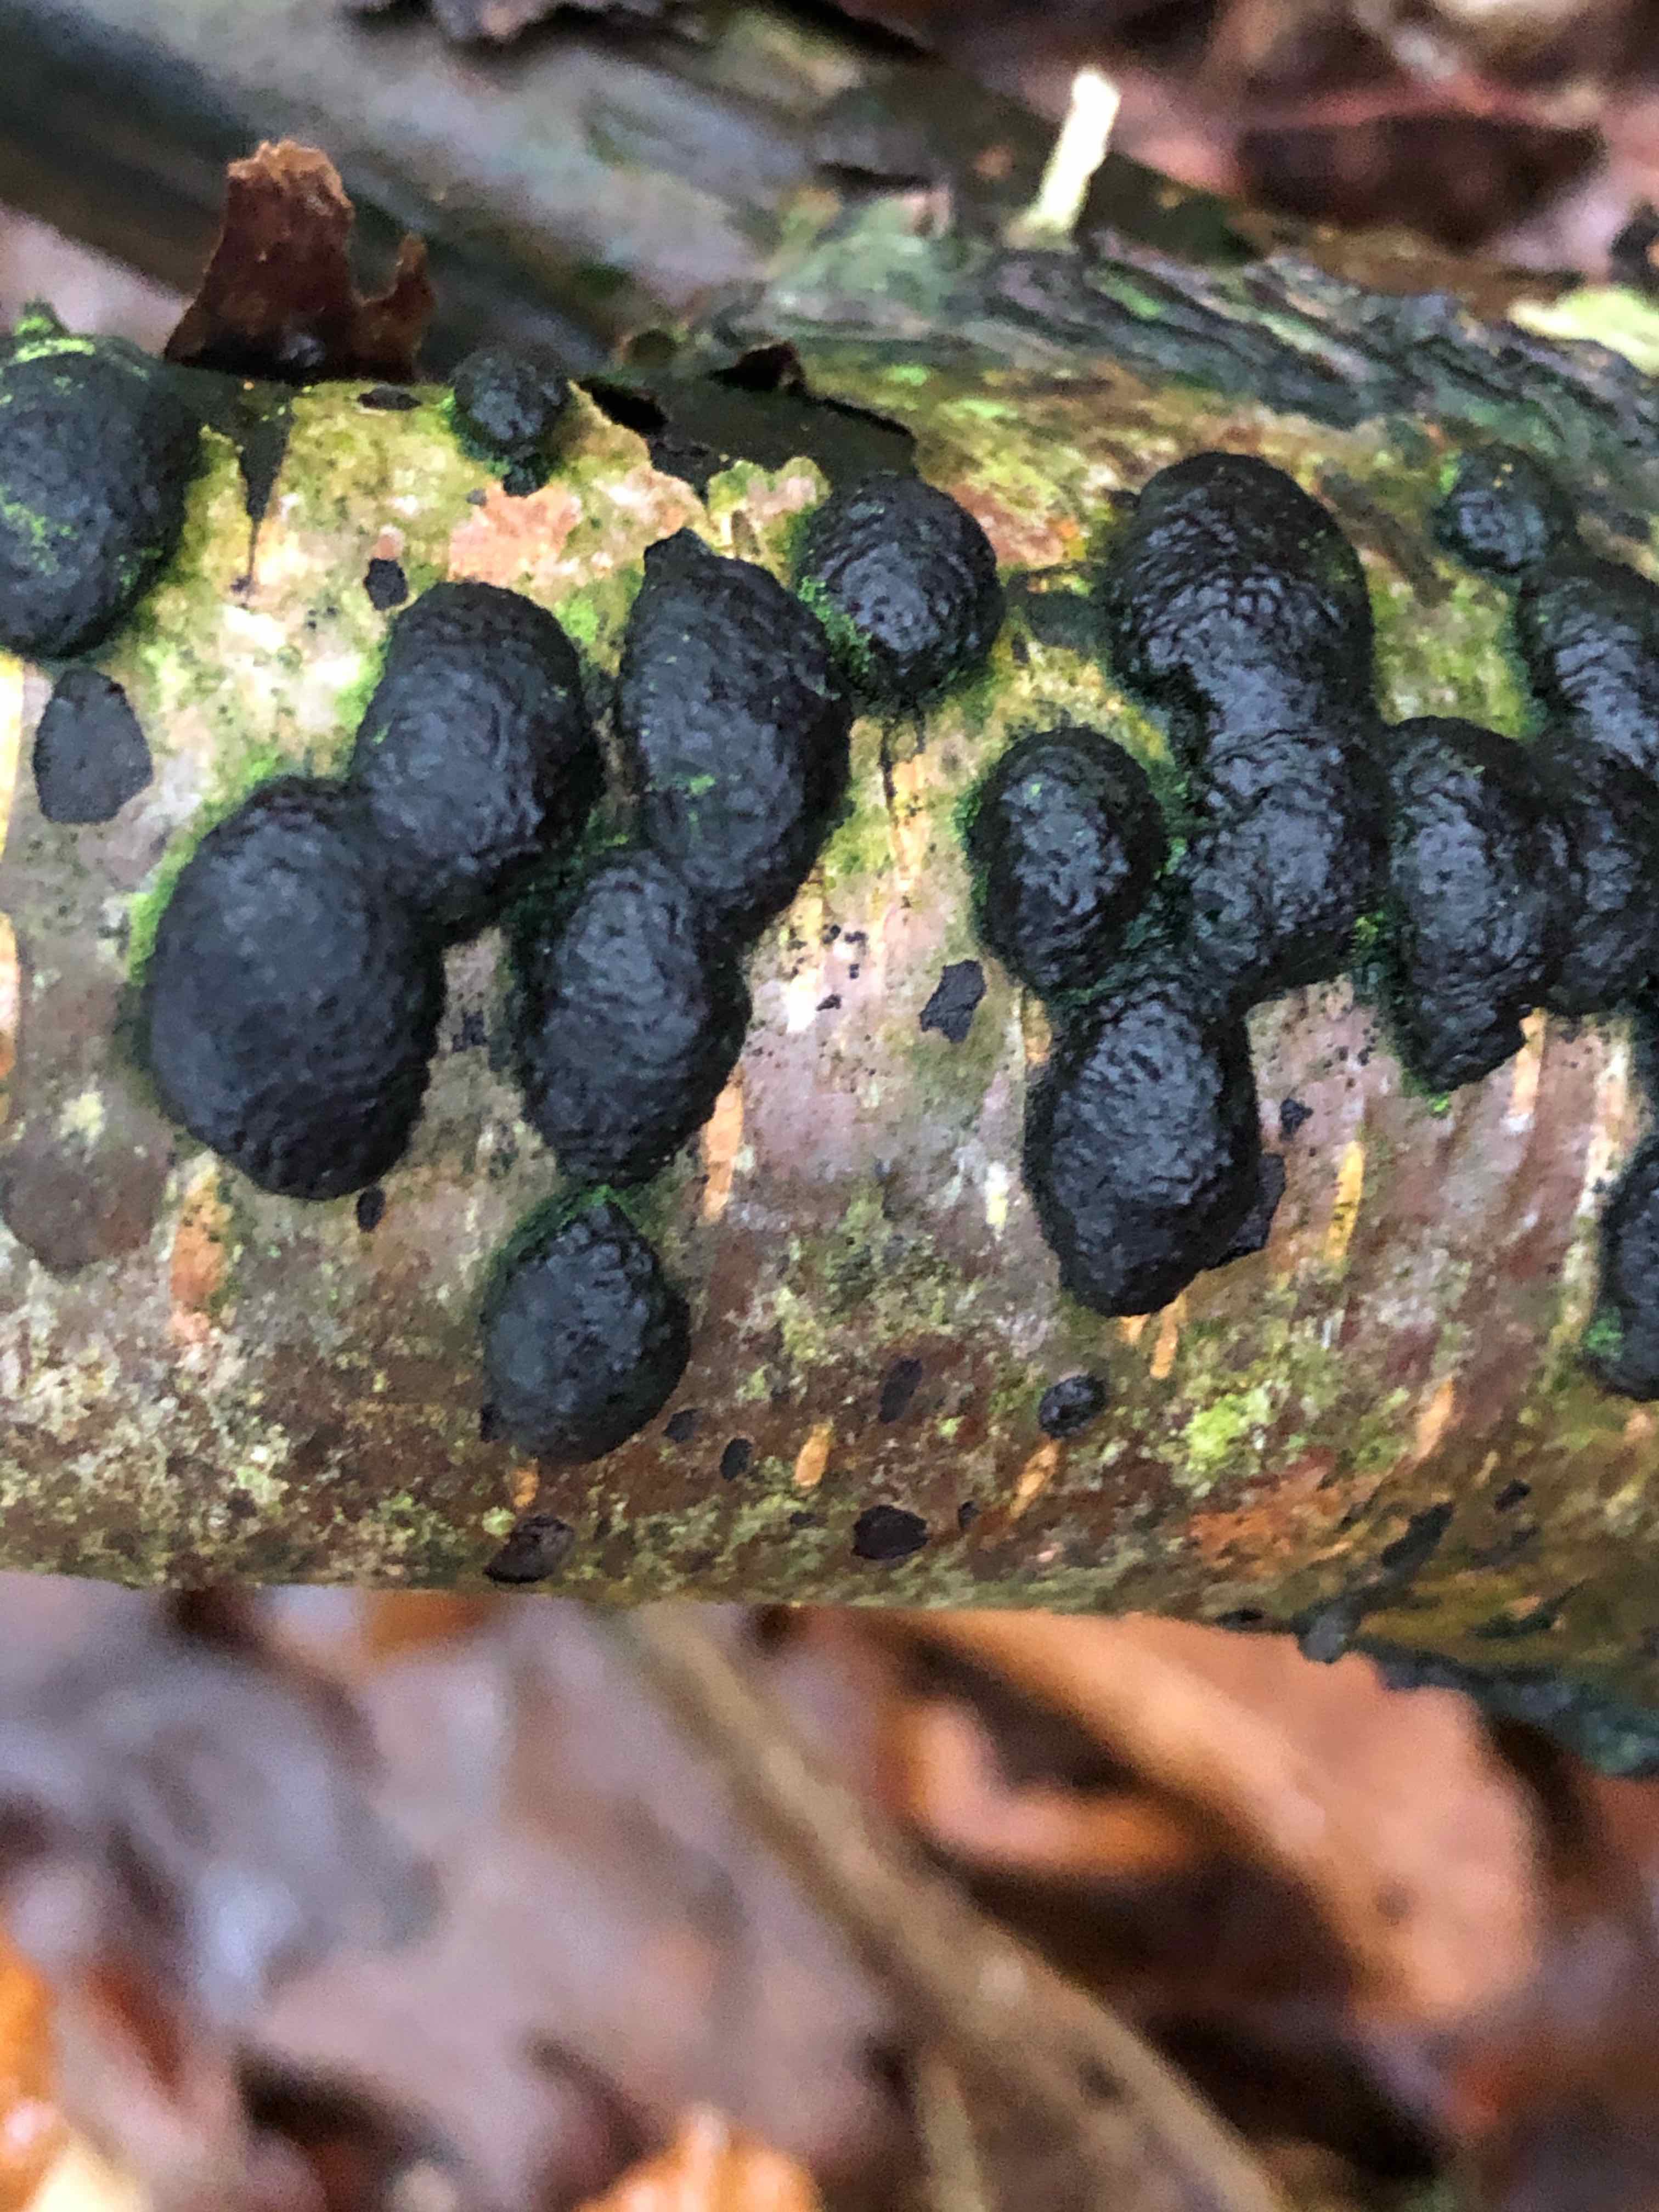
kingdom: Fungi
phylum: Ascomycota
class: Sordariomycetes
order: Xylariales
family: Hypoxylaceae
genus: Jackrogersella
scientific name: Jackrogersella multiformis
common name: foranderlig kulbær
